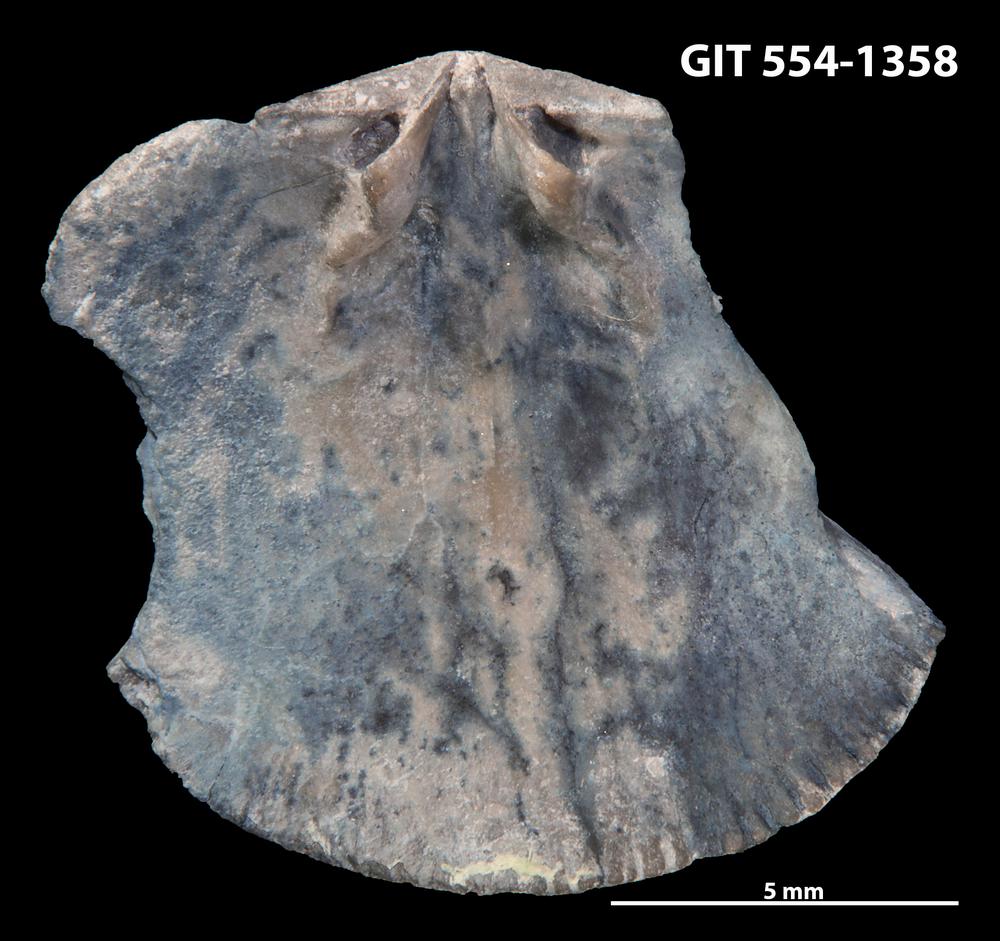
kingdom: Animalia
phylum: Brachiopoda
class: Rhynchonellata
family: Dalmanellidae
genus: Levenea
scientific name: Levenea Orthis canaliculata
